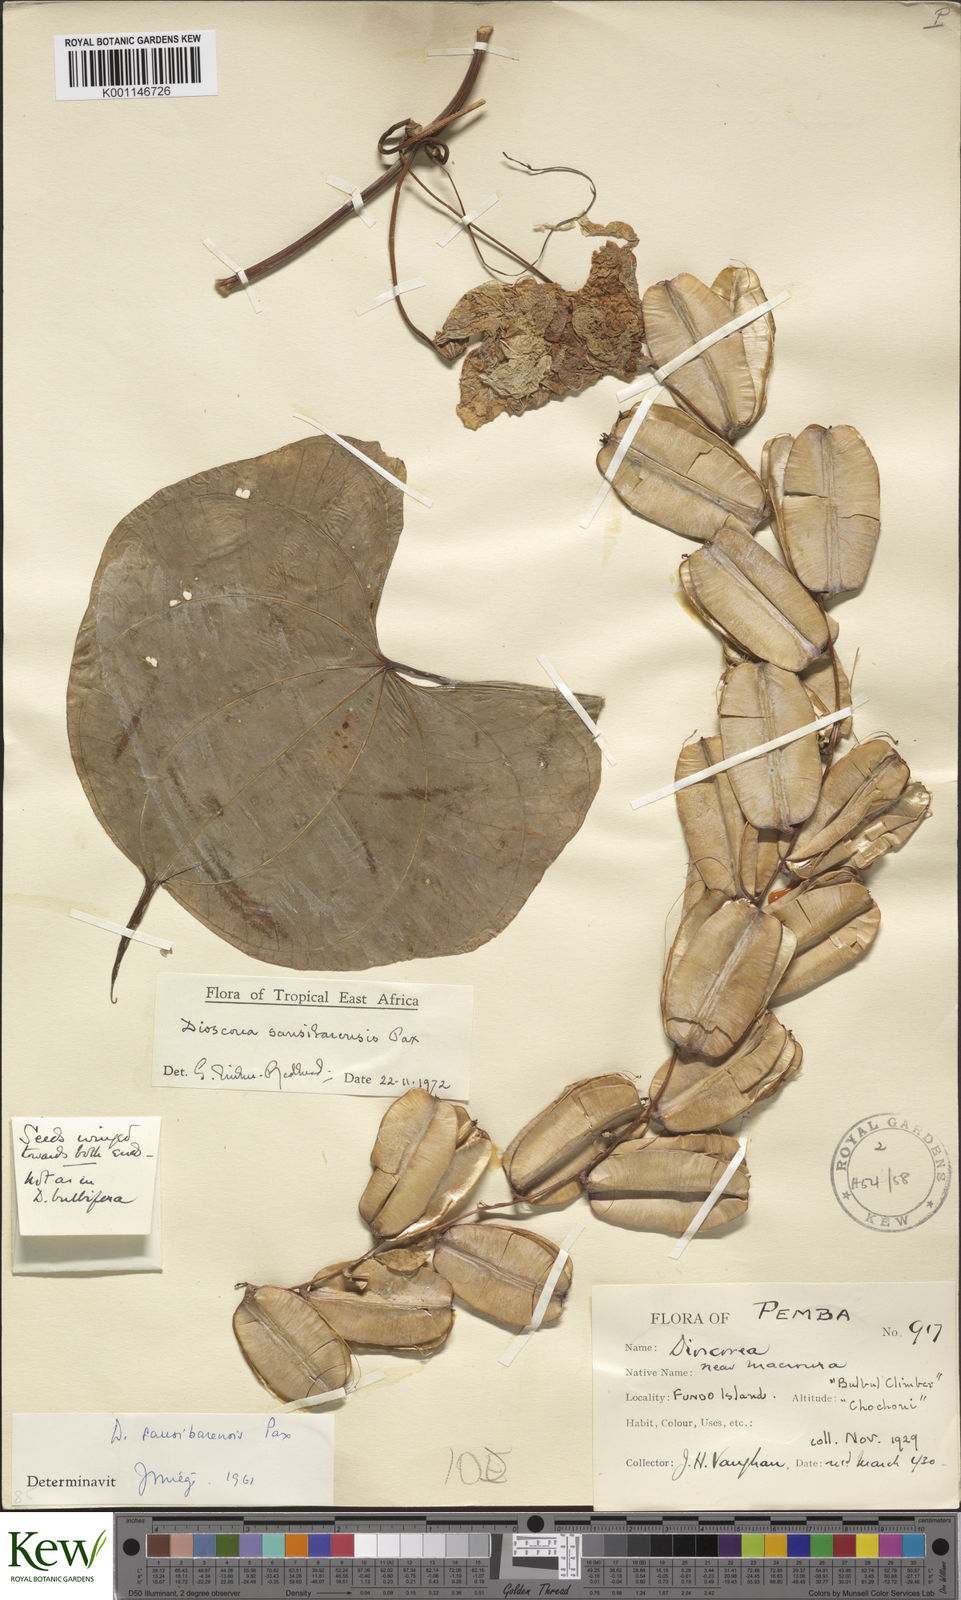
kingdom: Plantae
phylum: Tracheophyta
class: Liliopsida
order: Dioscoreales
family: Dioscoreaceae
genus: Dioscorea
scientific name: Dioscorea sansibarensis
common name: Zanzibar yam
